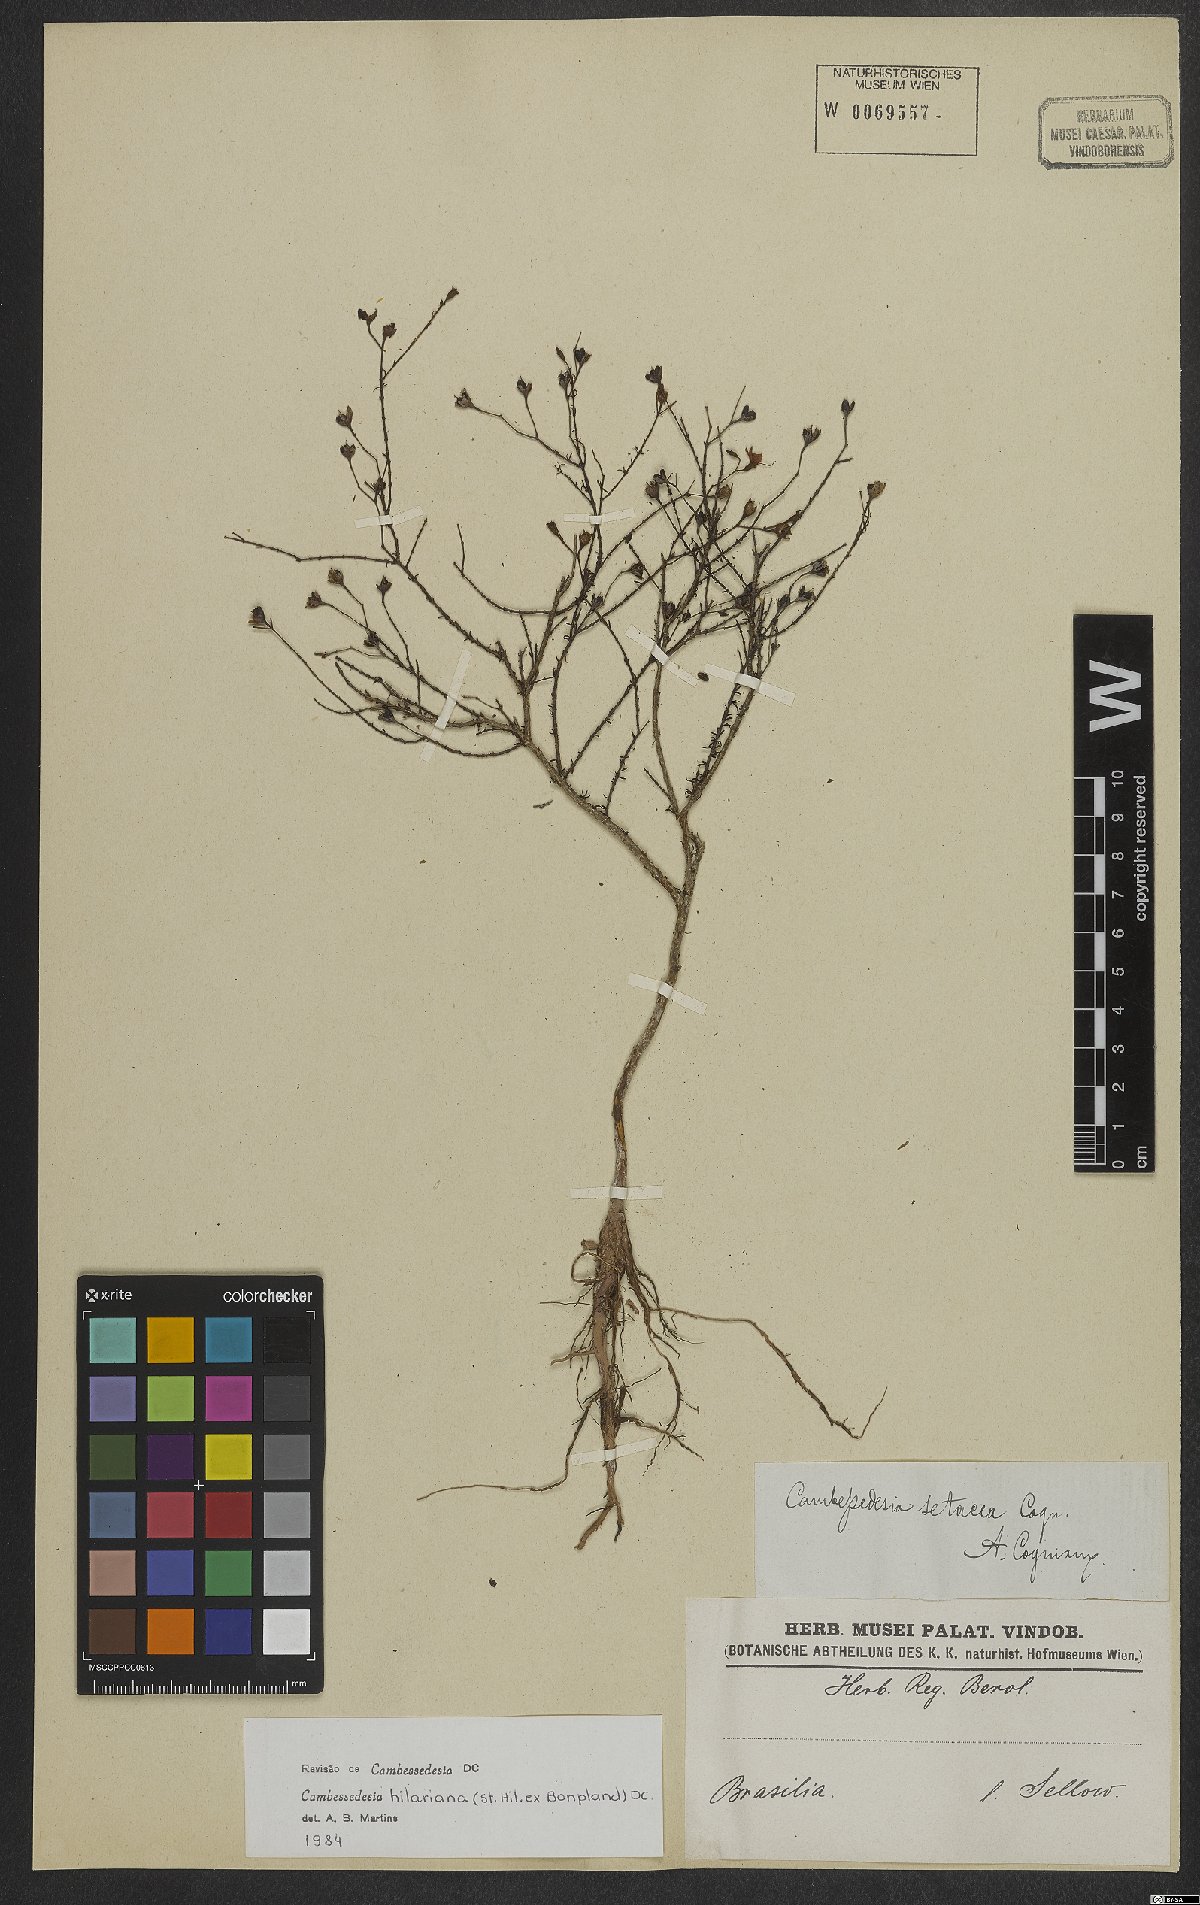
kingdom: Plantae
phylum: Tracheophyta
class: Magnoliopsida
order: Myrtales
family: Melastomataceae
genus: Cambessedesia
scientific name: Cambessedesia hilariana
